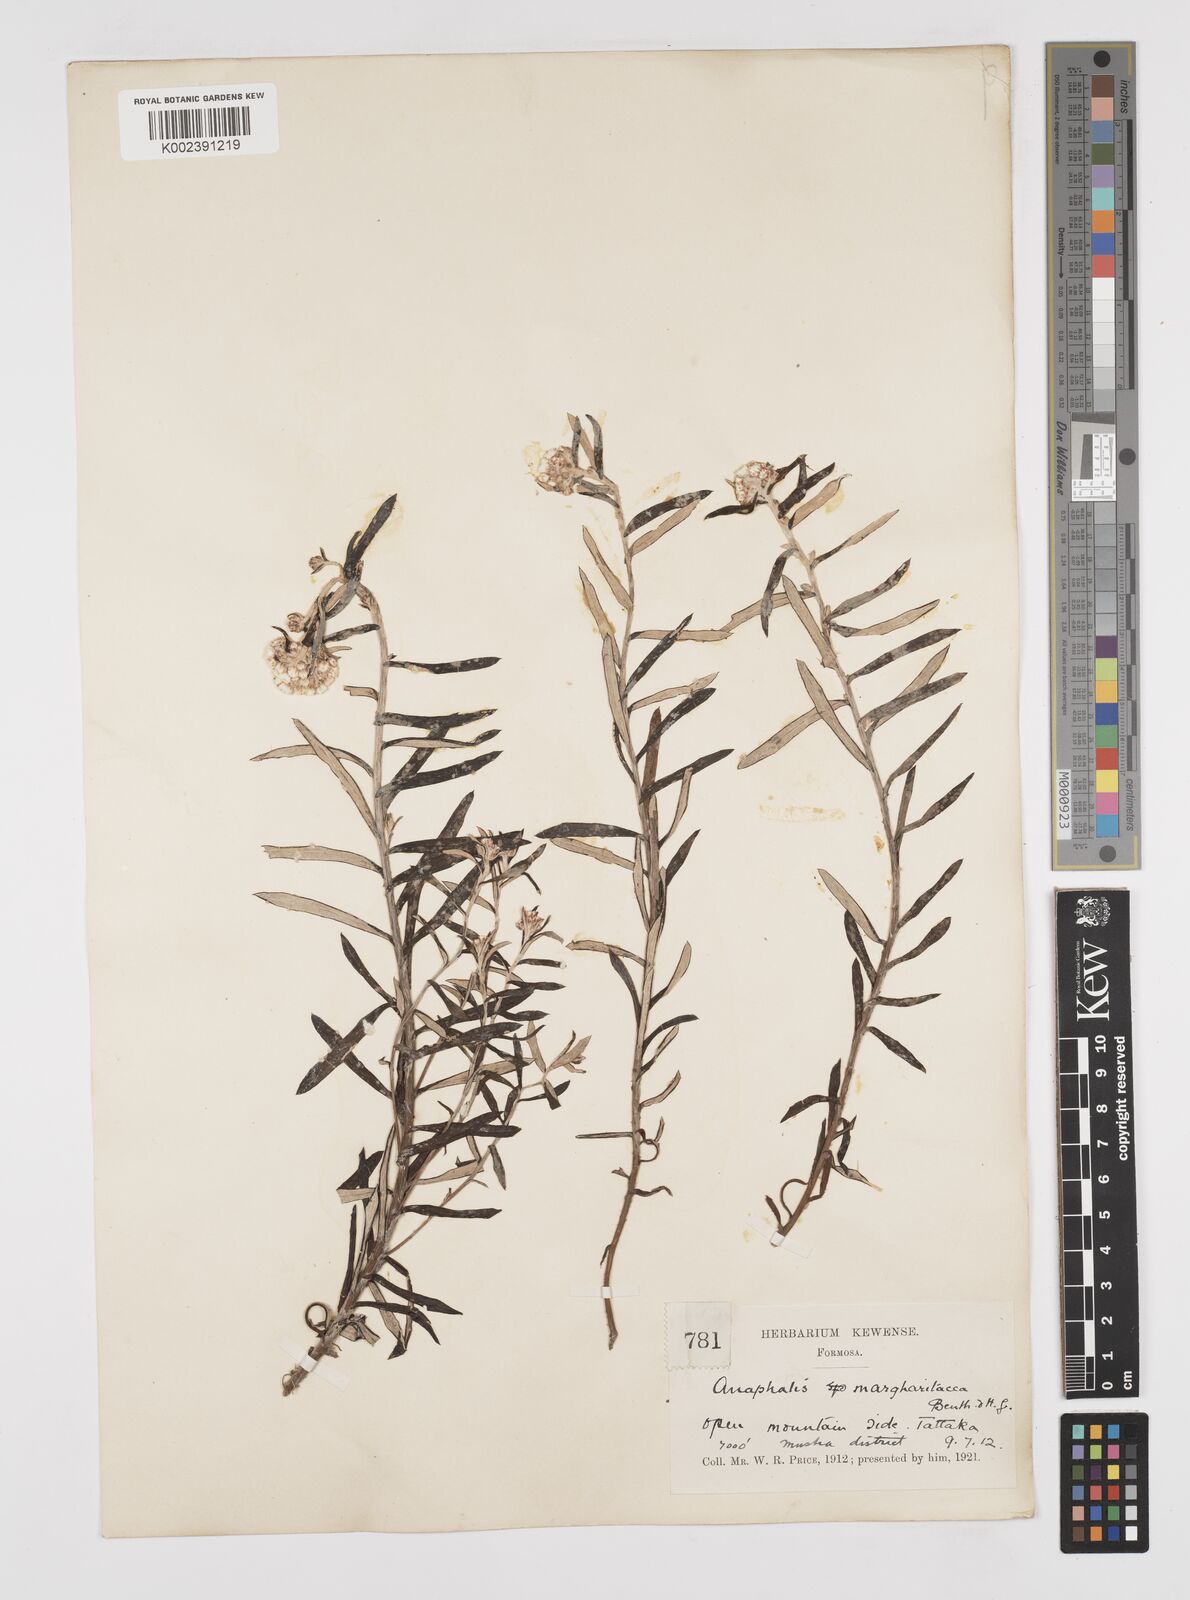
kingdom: Plantae
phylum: Tracheophyta
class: Magnoliopsida
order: Asterales
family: Asteraceae
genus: Anaphalis
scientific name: Anaphalis morrisonicola
